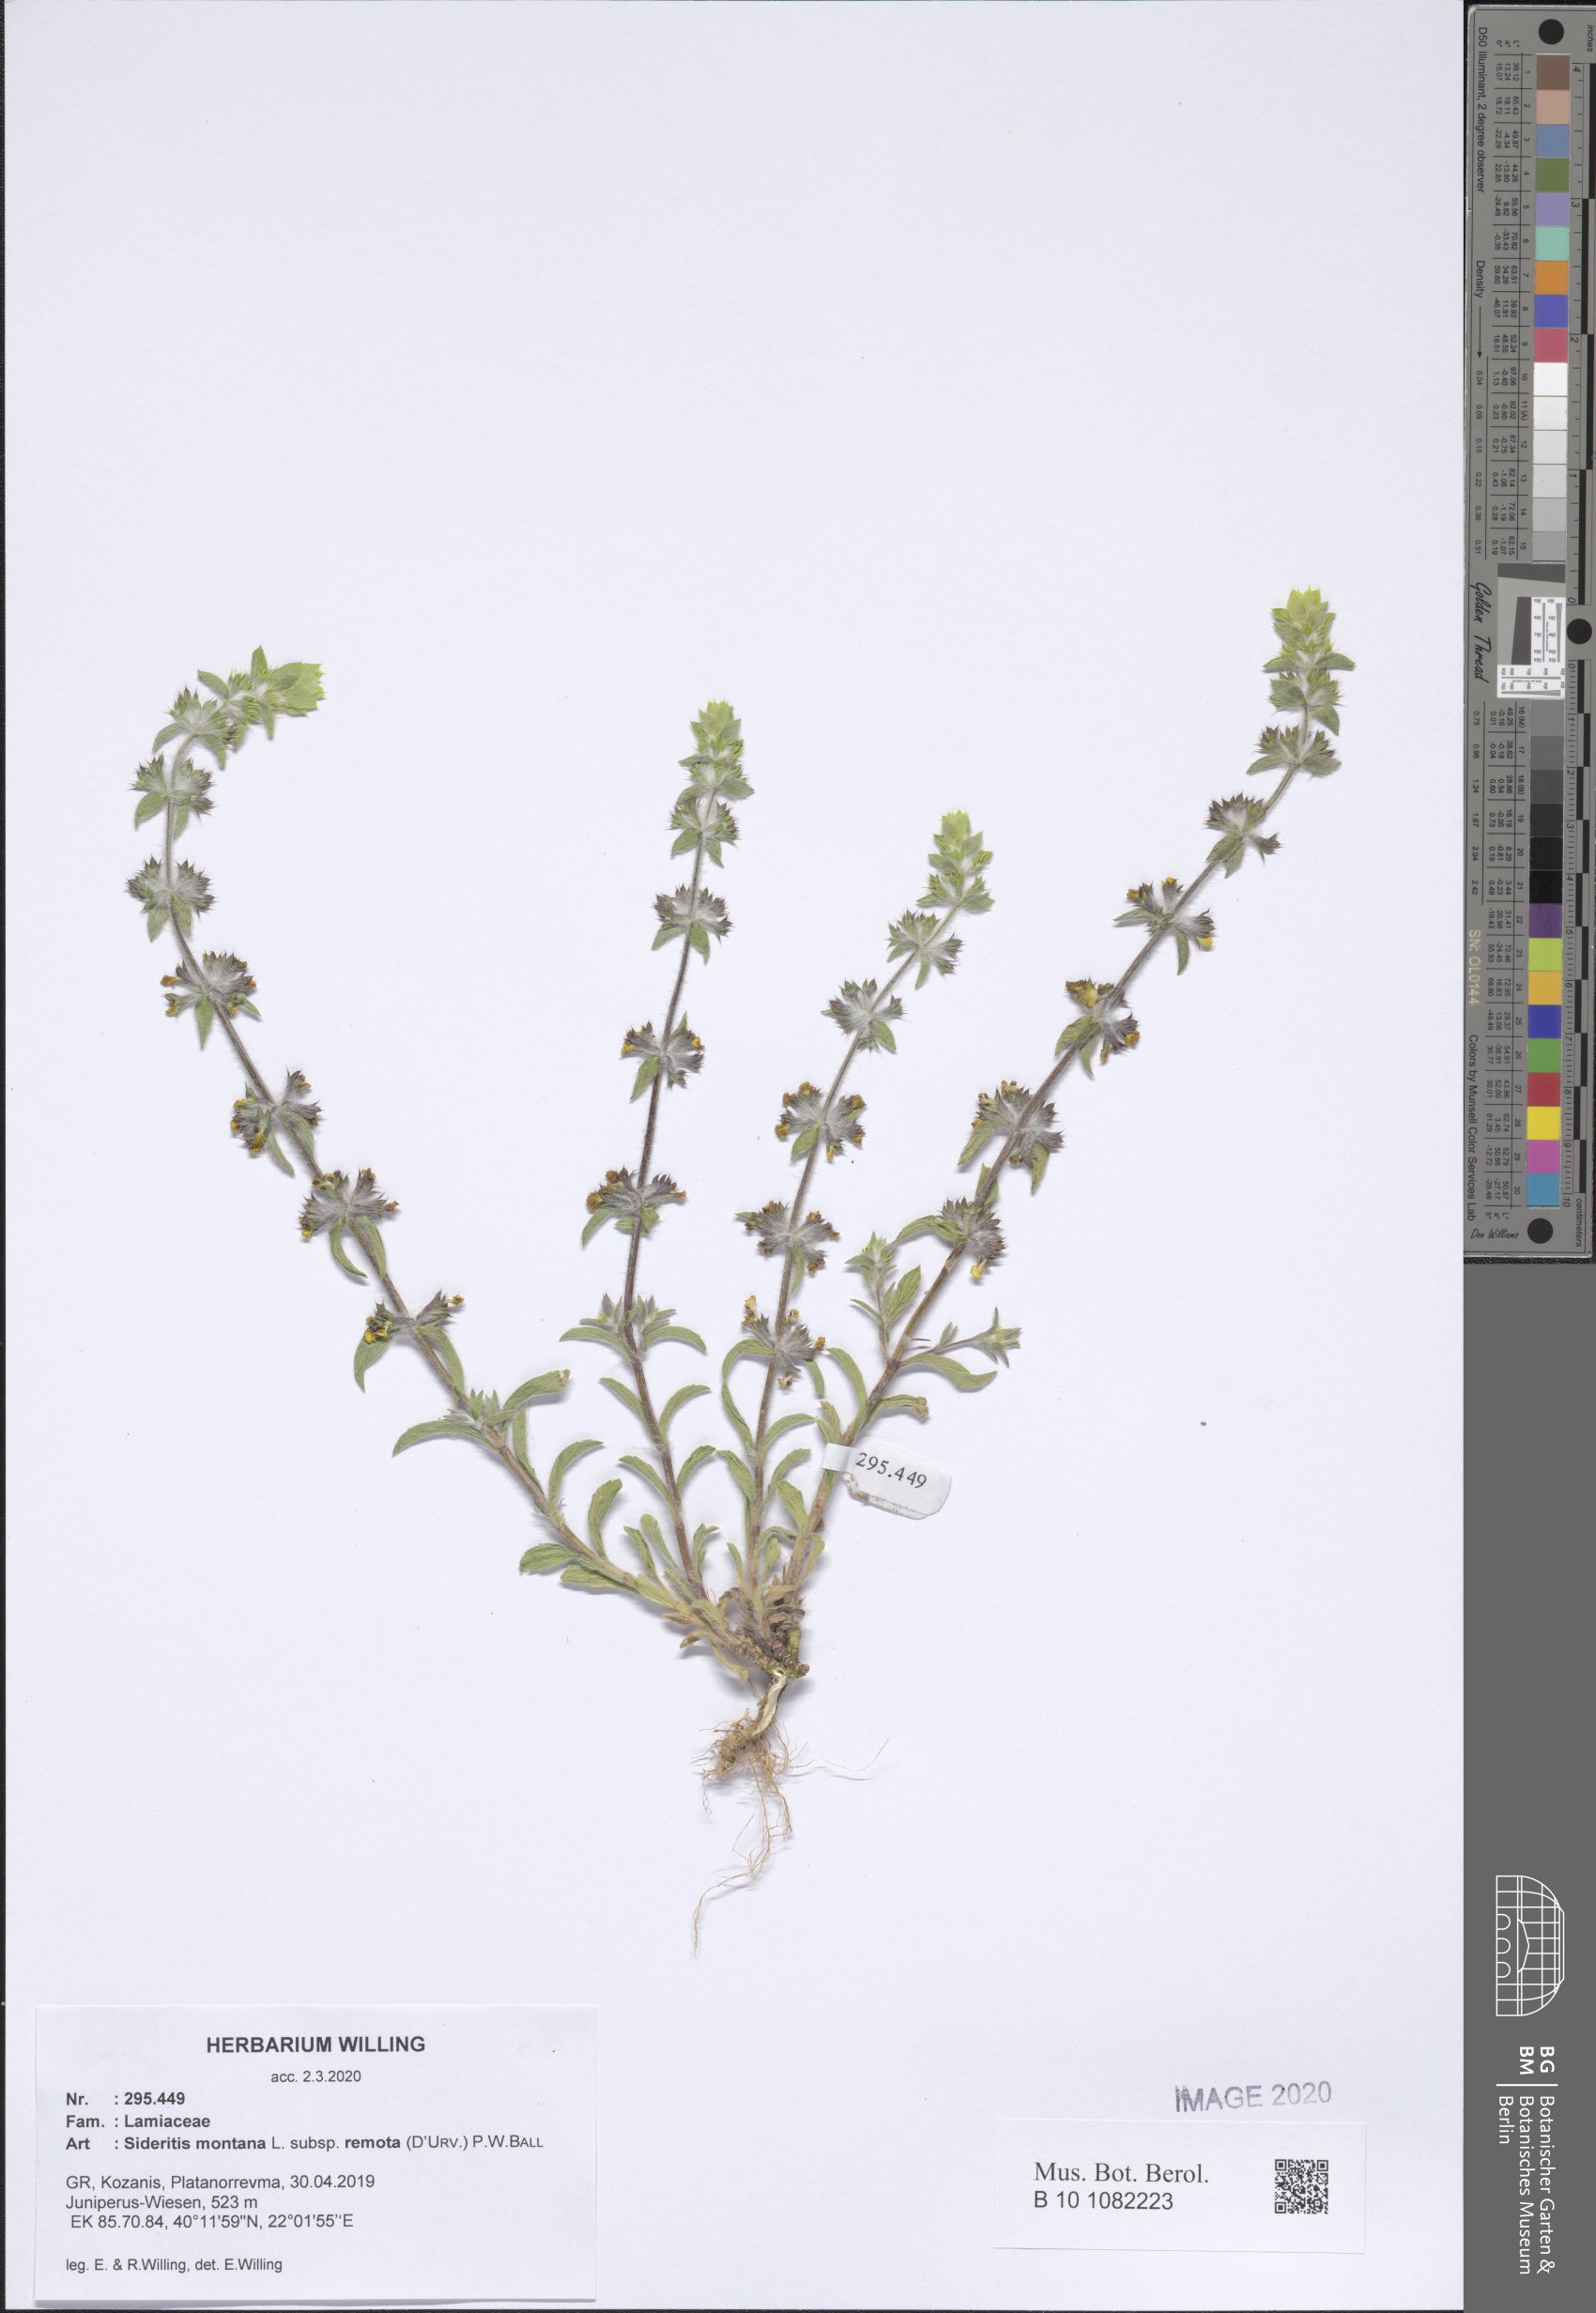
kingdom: Plantae
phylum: Tracheophyta
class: Magnoliopsida
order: Lamiales
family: Lamiaceae
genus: Sideritis
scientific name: Sideritis montana
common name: Mountain ironwort
